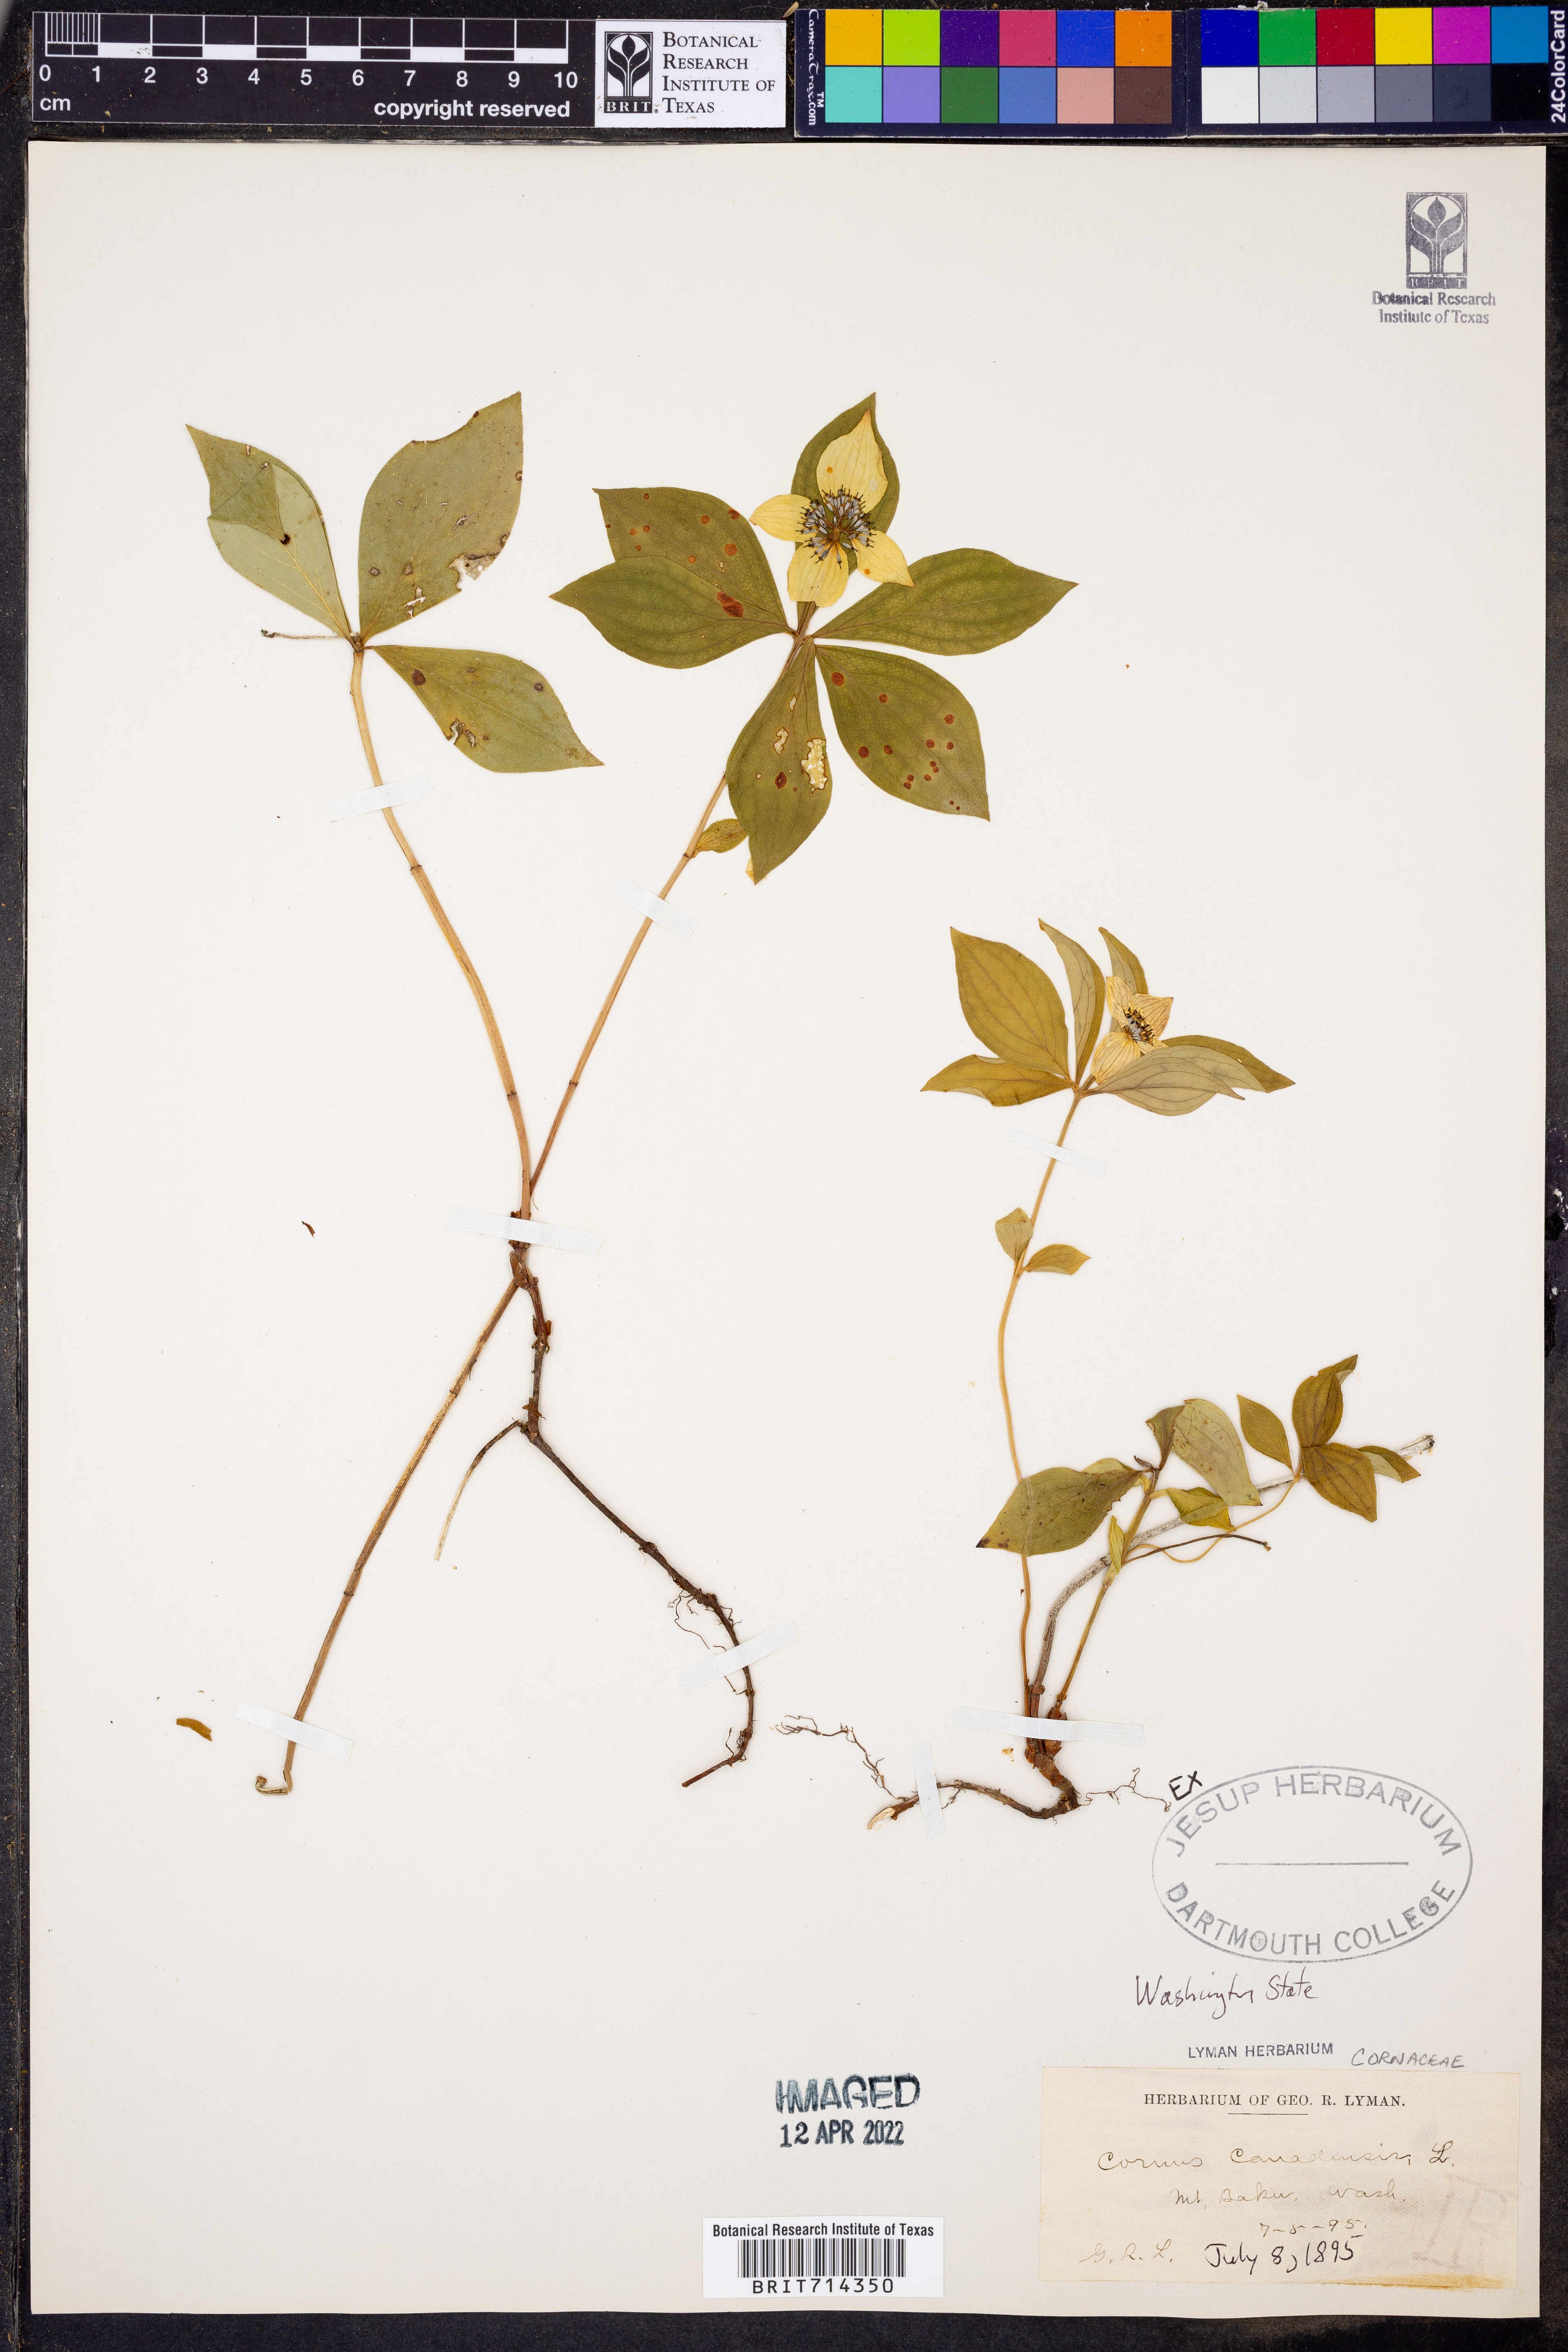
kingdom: Plantae
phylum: Tracheophyta
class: Magnoliopsida
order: Cornales
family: Cornaceae
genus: Cornus
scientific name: Cornus canadensis
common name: Creeping dogwood
